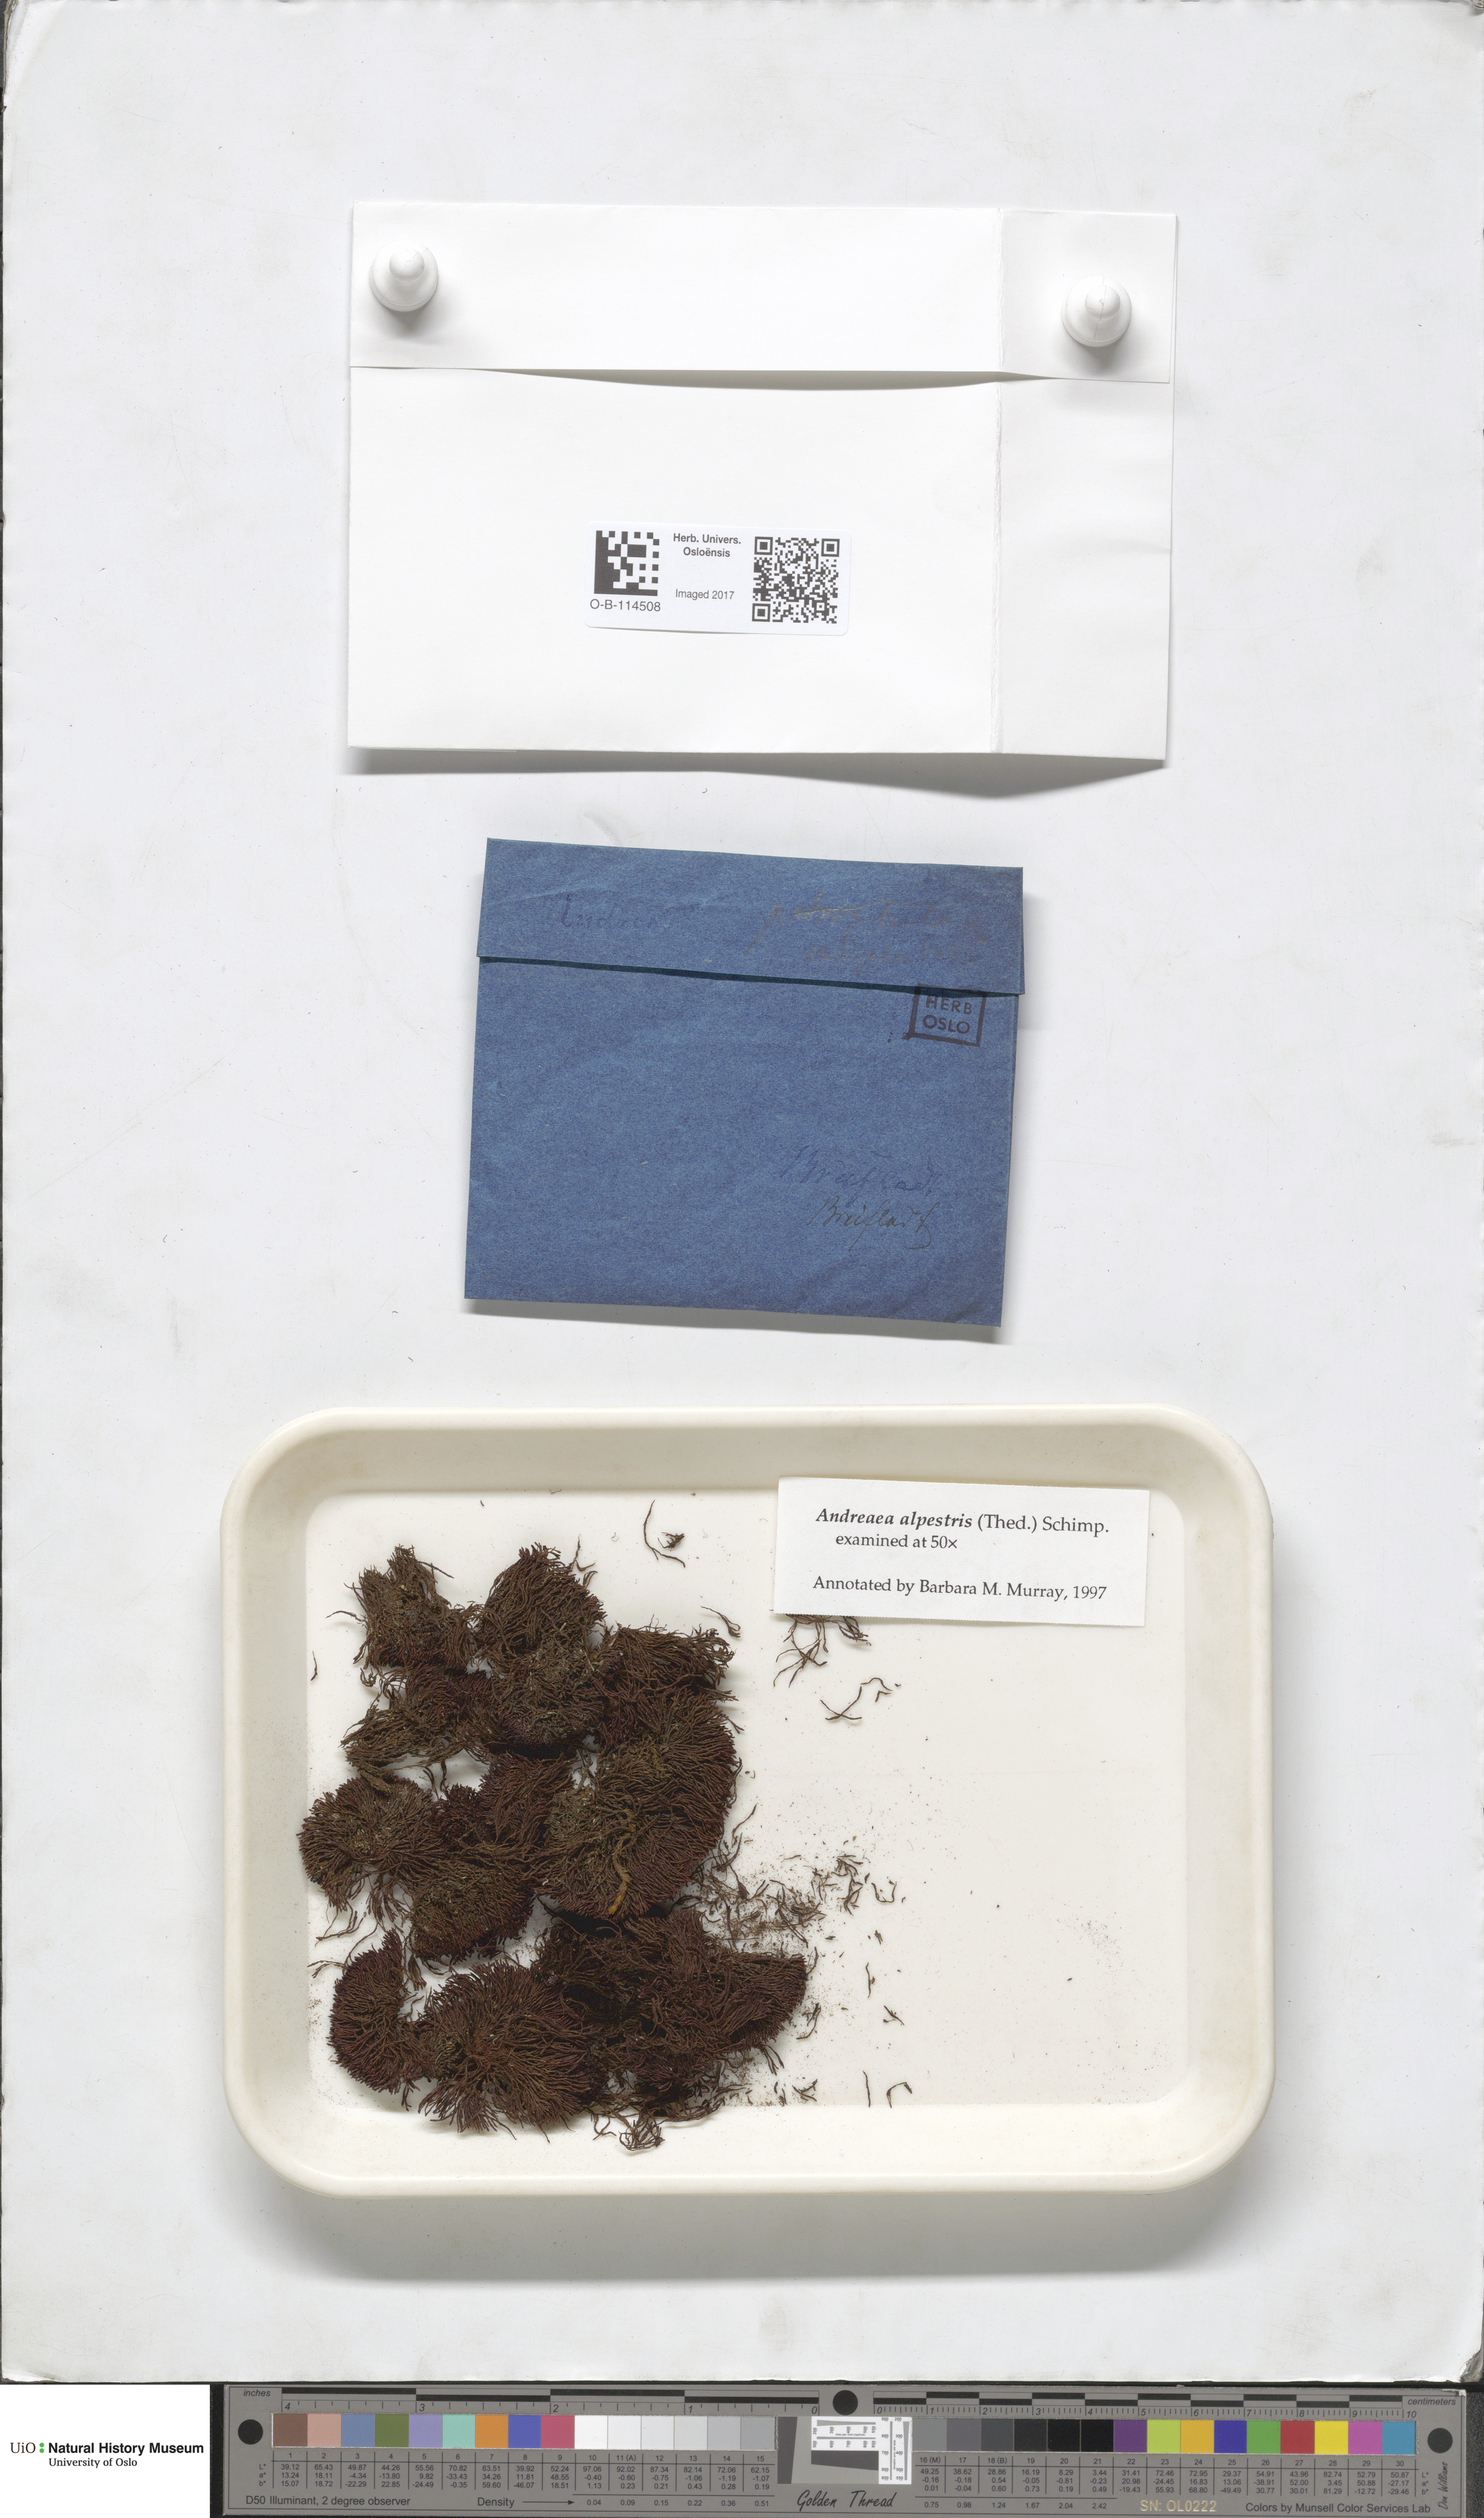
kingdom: Plantae
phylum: Bryophyta
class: Andreaeopsida
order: Andreaeales
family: Andreaeaceae
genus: Andreaea
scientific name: Andreaea alpestris
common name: Slender rock-moss
